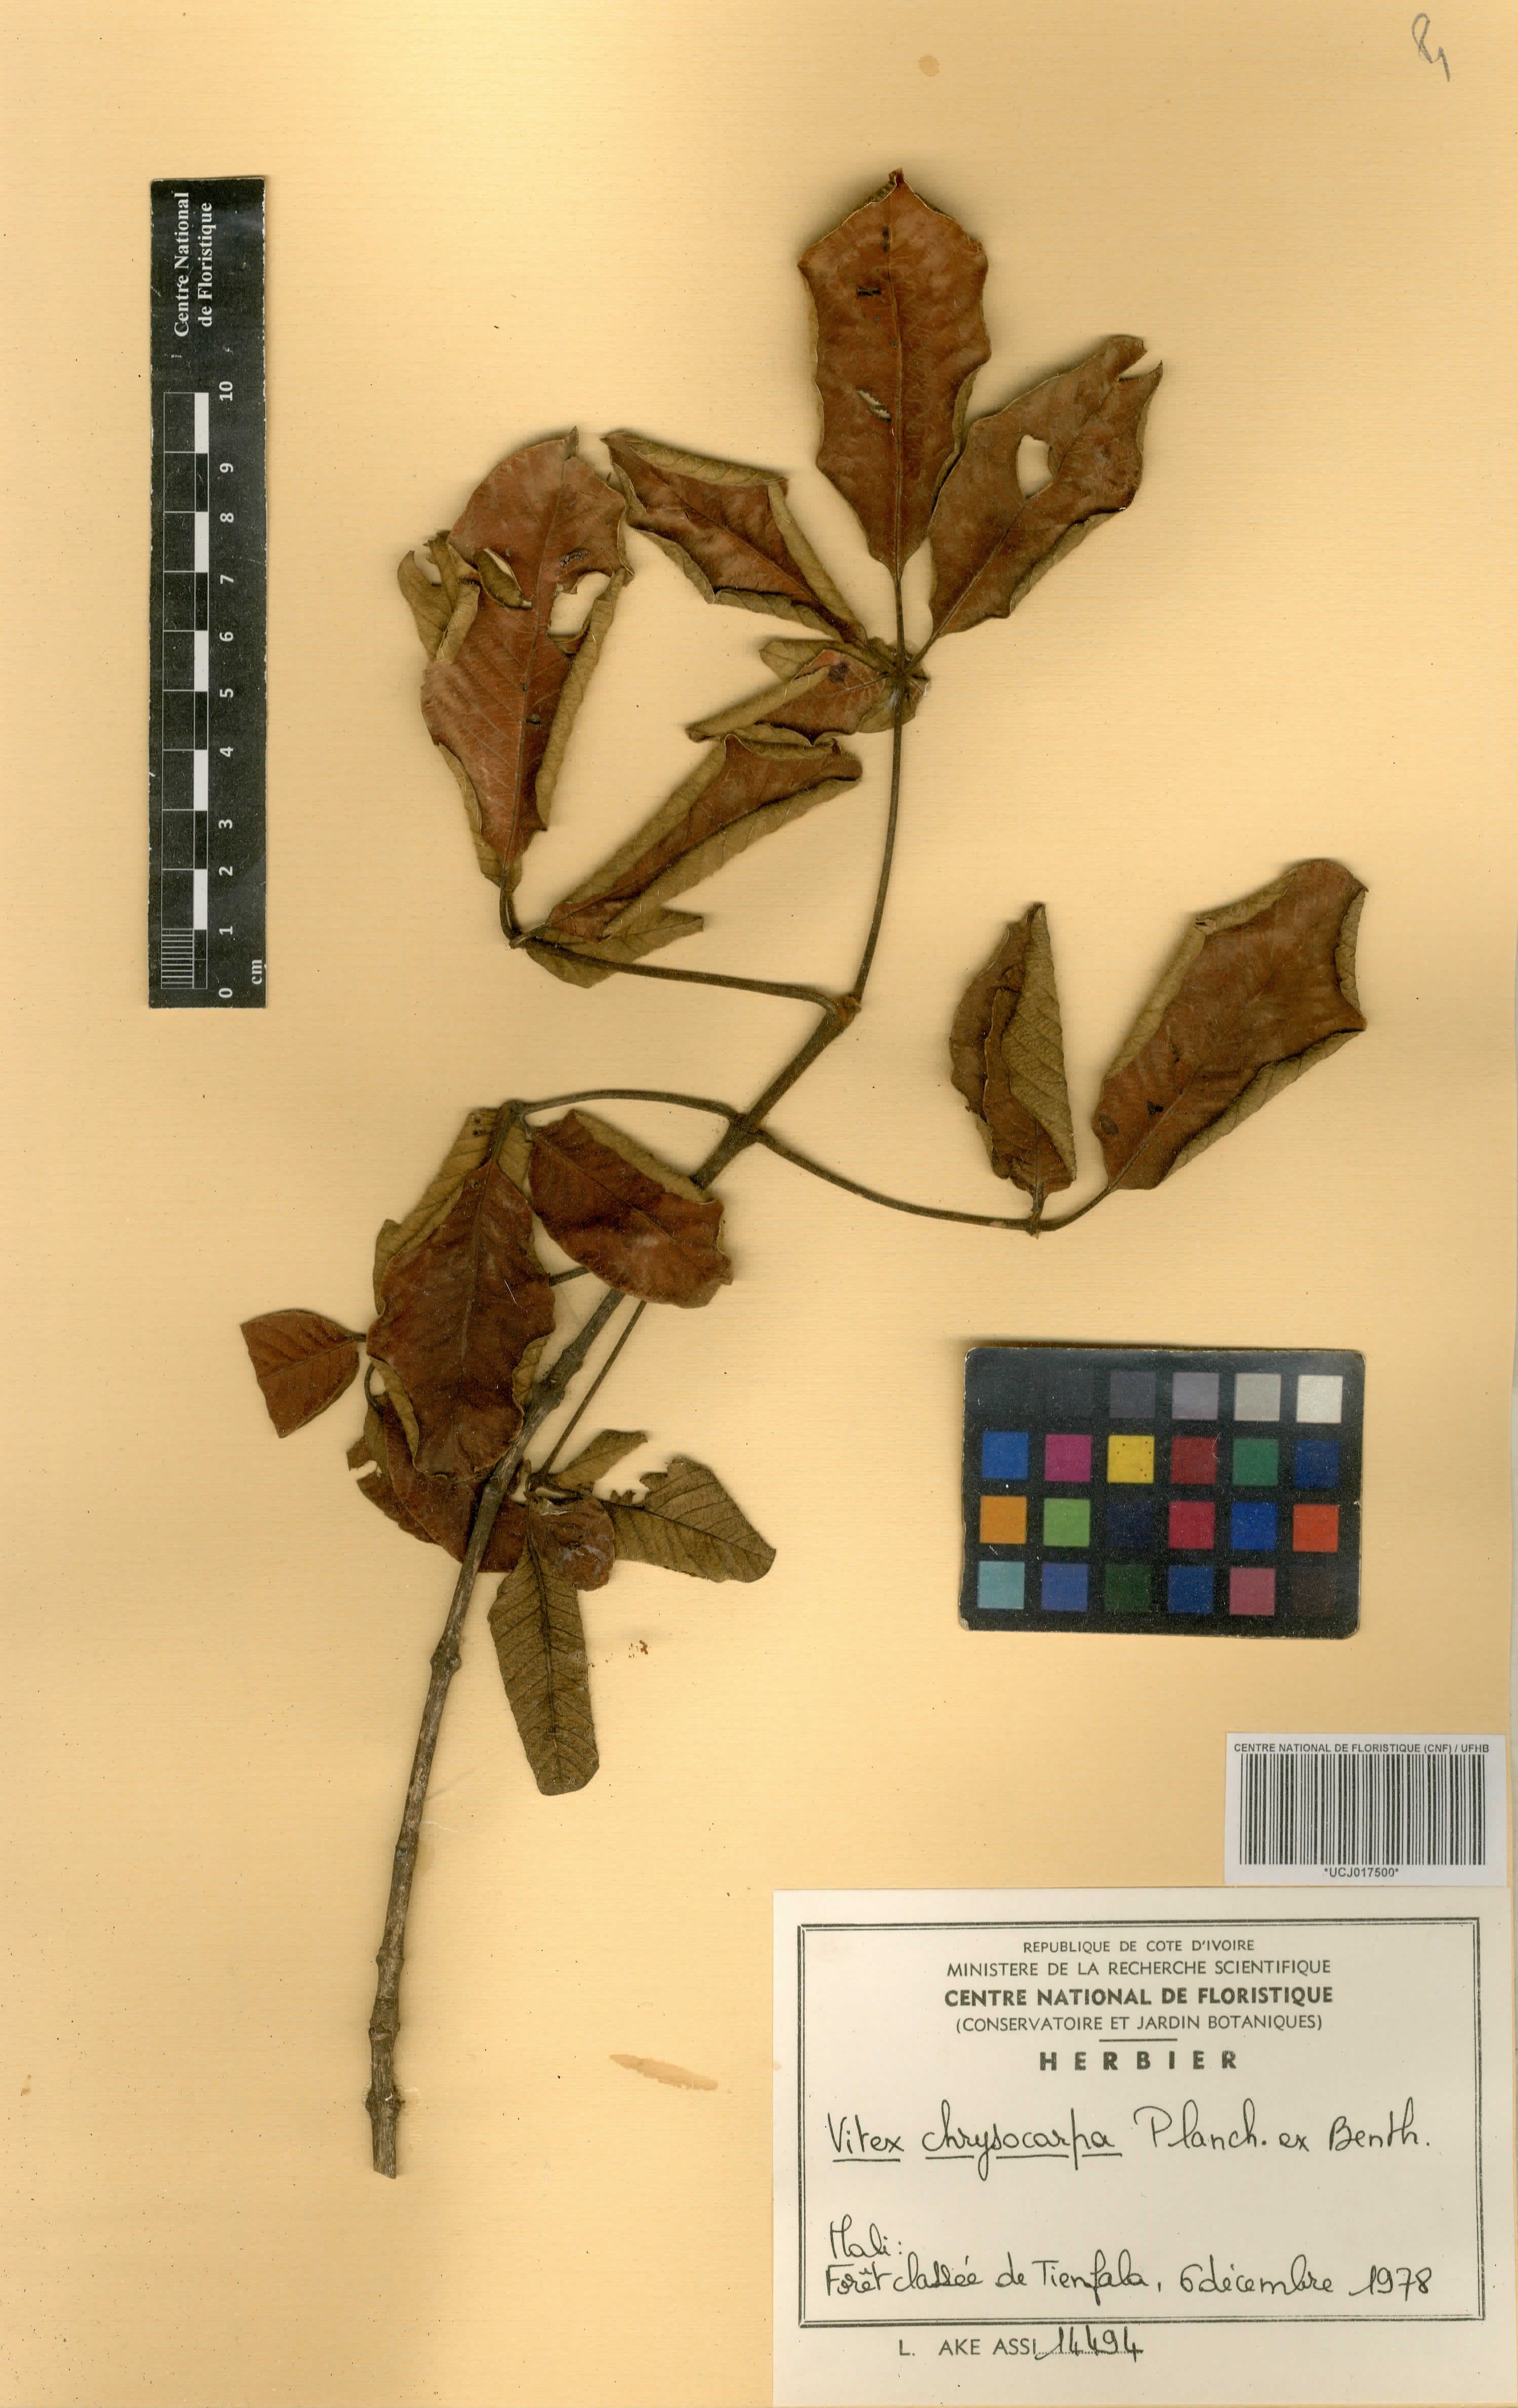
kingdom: Plantae
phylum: Tracheophyta
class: Magnoliopsida
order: Lamiales
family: Verbenaceae
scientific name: Verbenaceae
